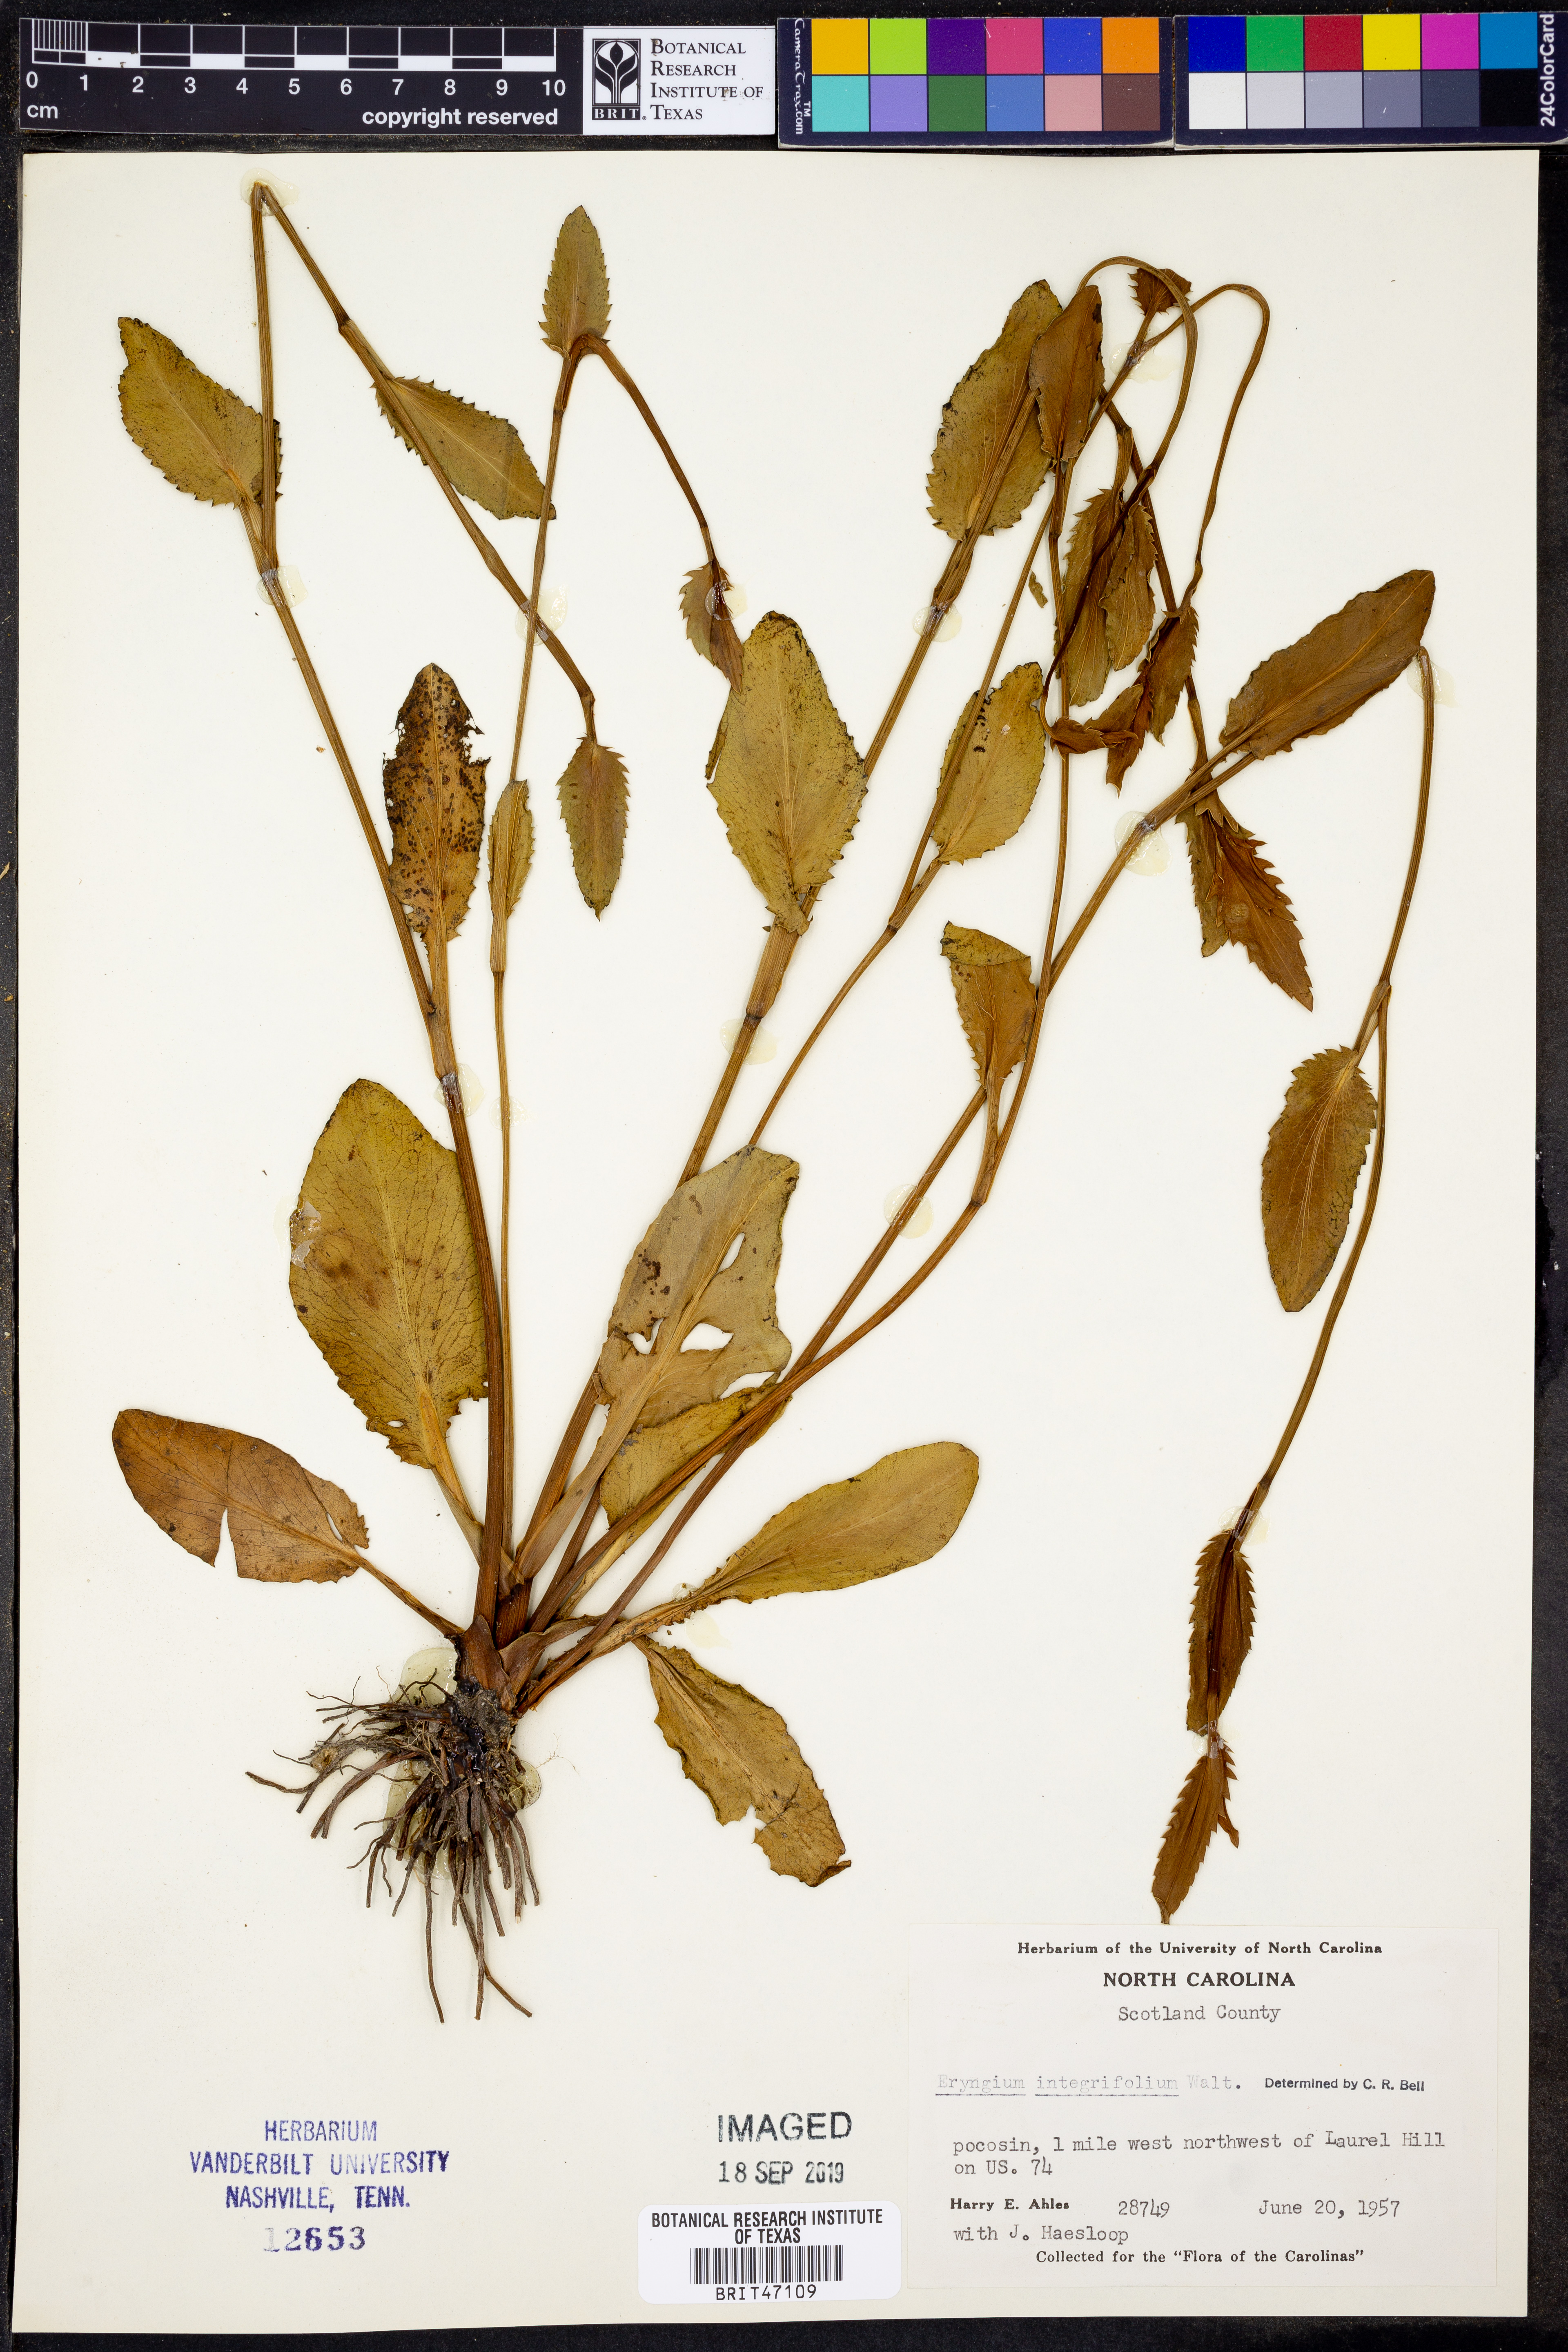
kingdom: Plantae
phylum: Tracheophyta
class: Magnoliopsida
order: Apiales
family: Apiaceae
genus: Eryngium
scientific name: Eryngium integrifolium
